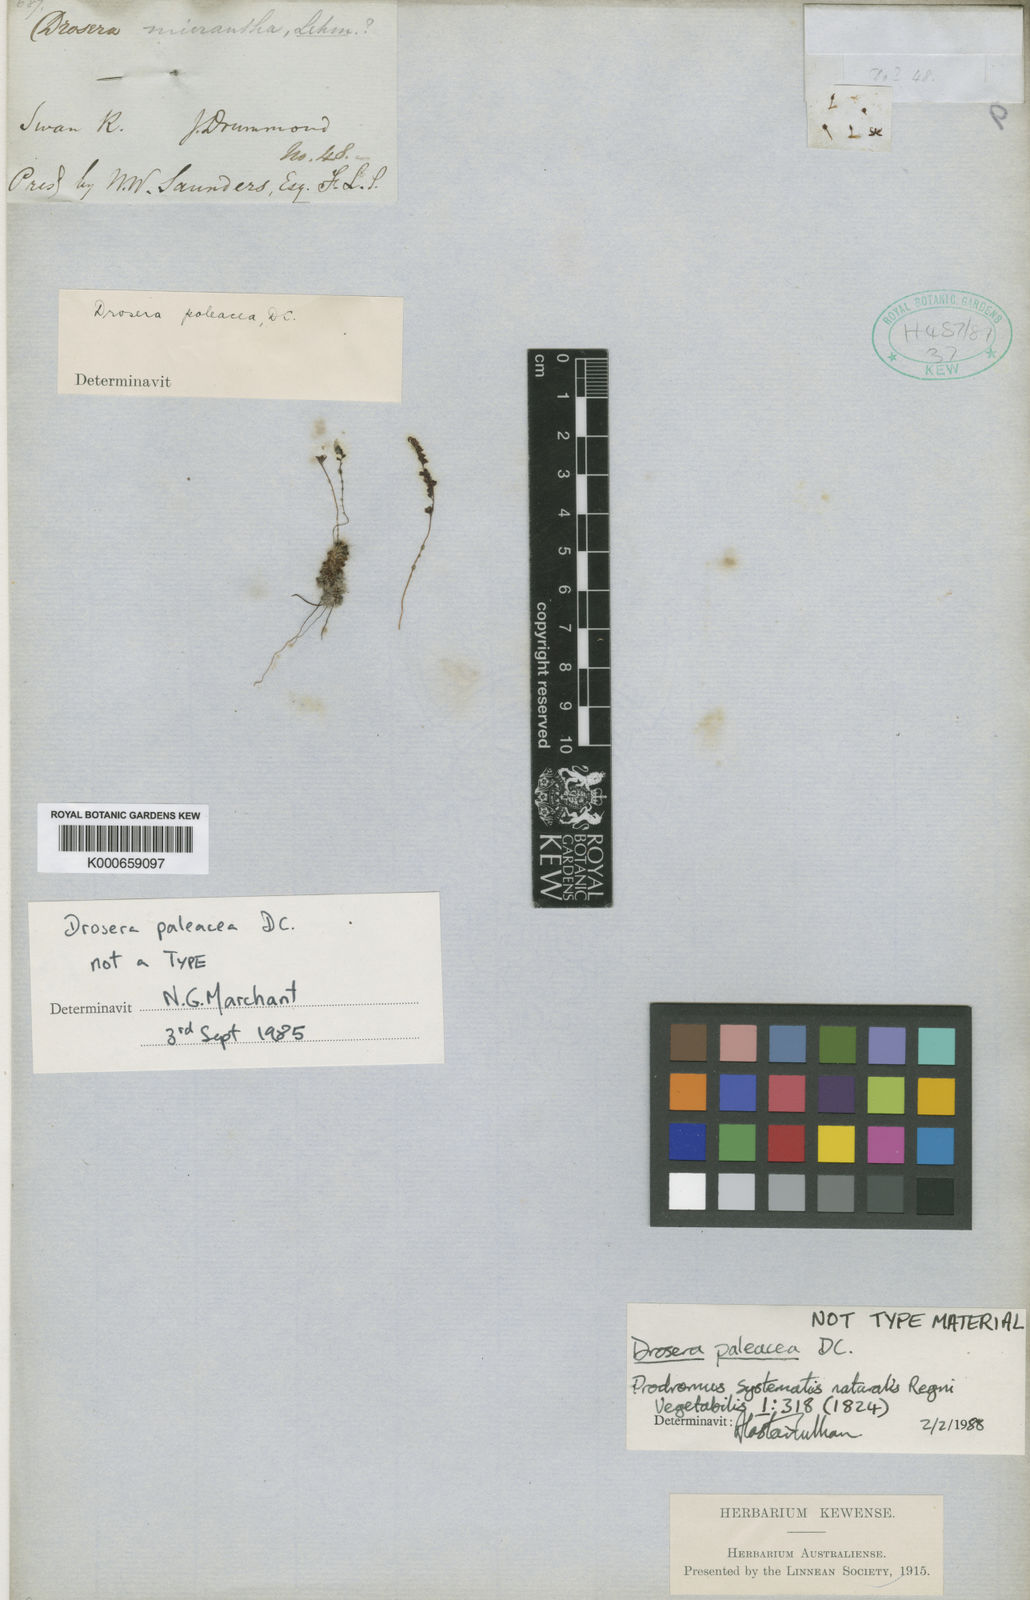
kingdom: Plantae
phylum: Tracheophyta
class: Magnoliopsida
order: Caryophyllales
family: Droseraceae
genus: Drosera
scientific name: Drosera paleacea
